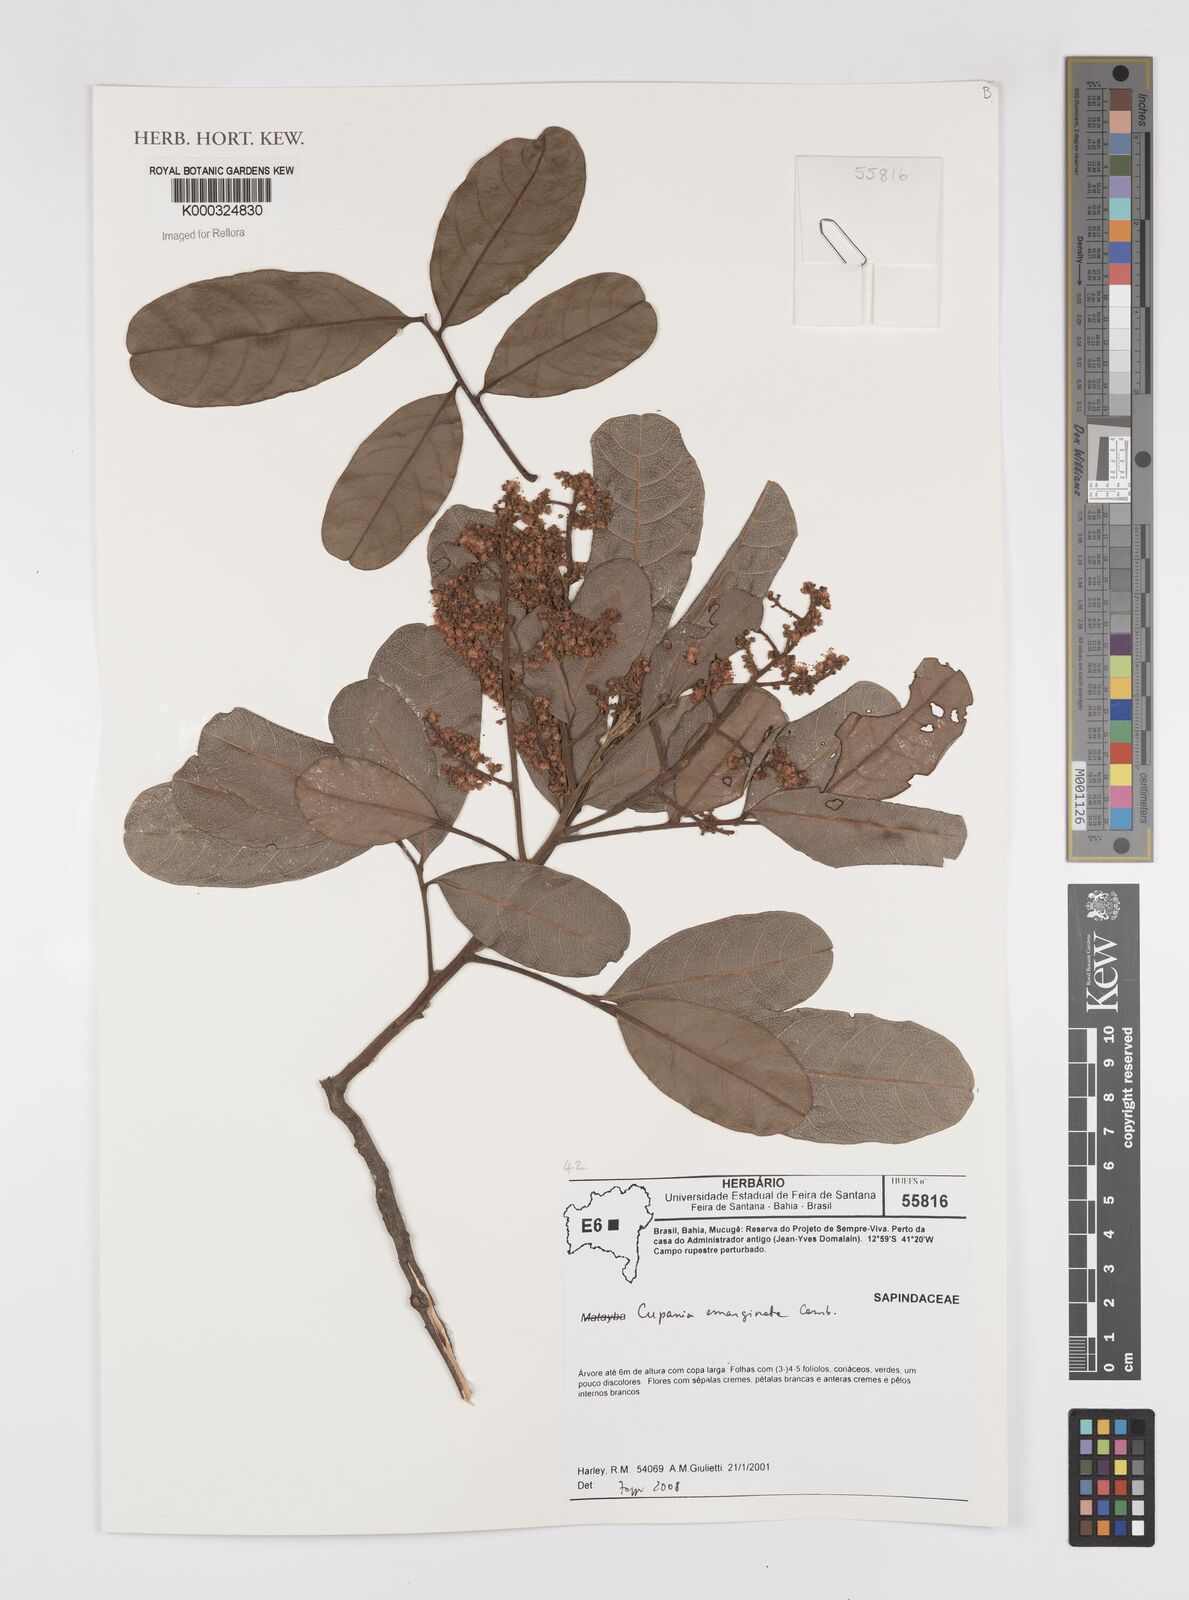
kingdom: Plantae
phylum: Tracheophyta
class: Magnoliopsida
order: Sapindales
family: Sapindaceae
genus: Cupania
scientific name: Cupania emarginata
